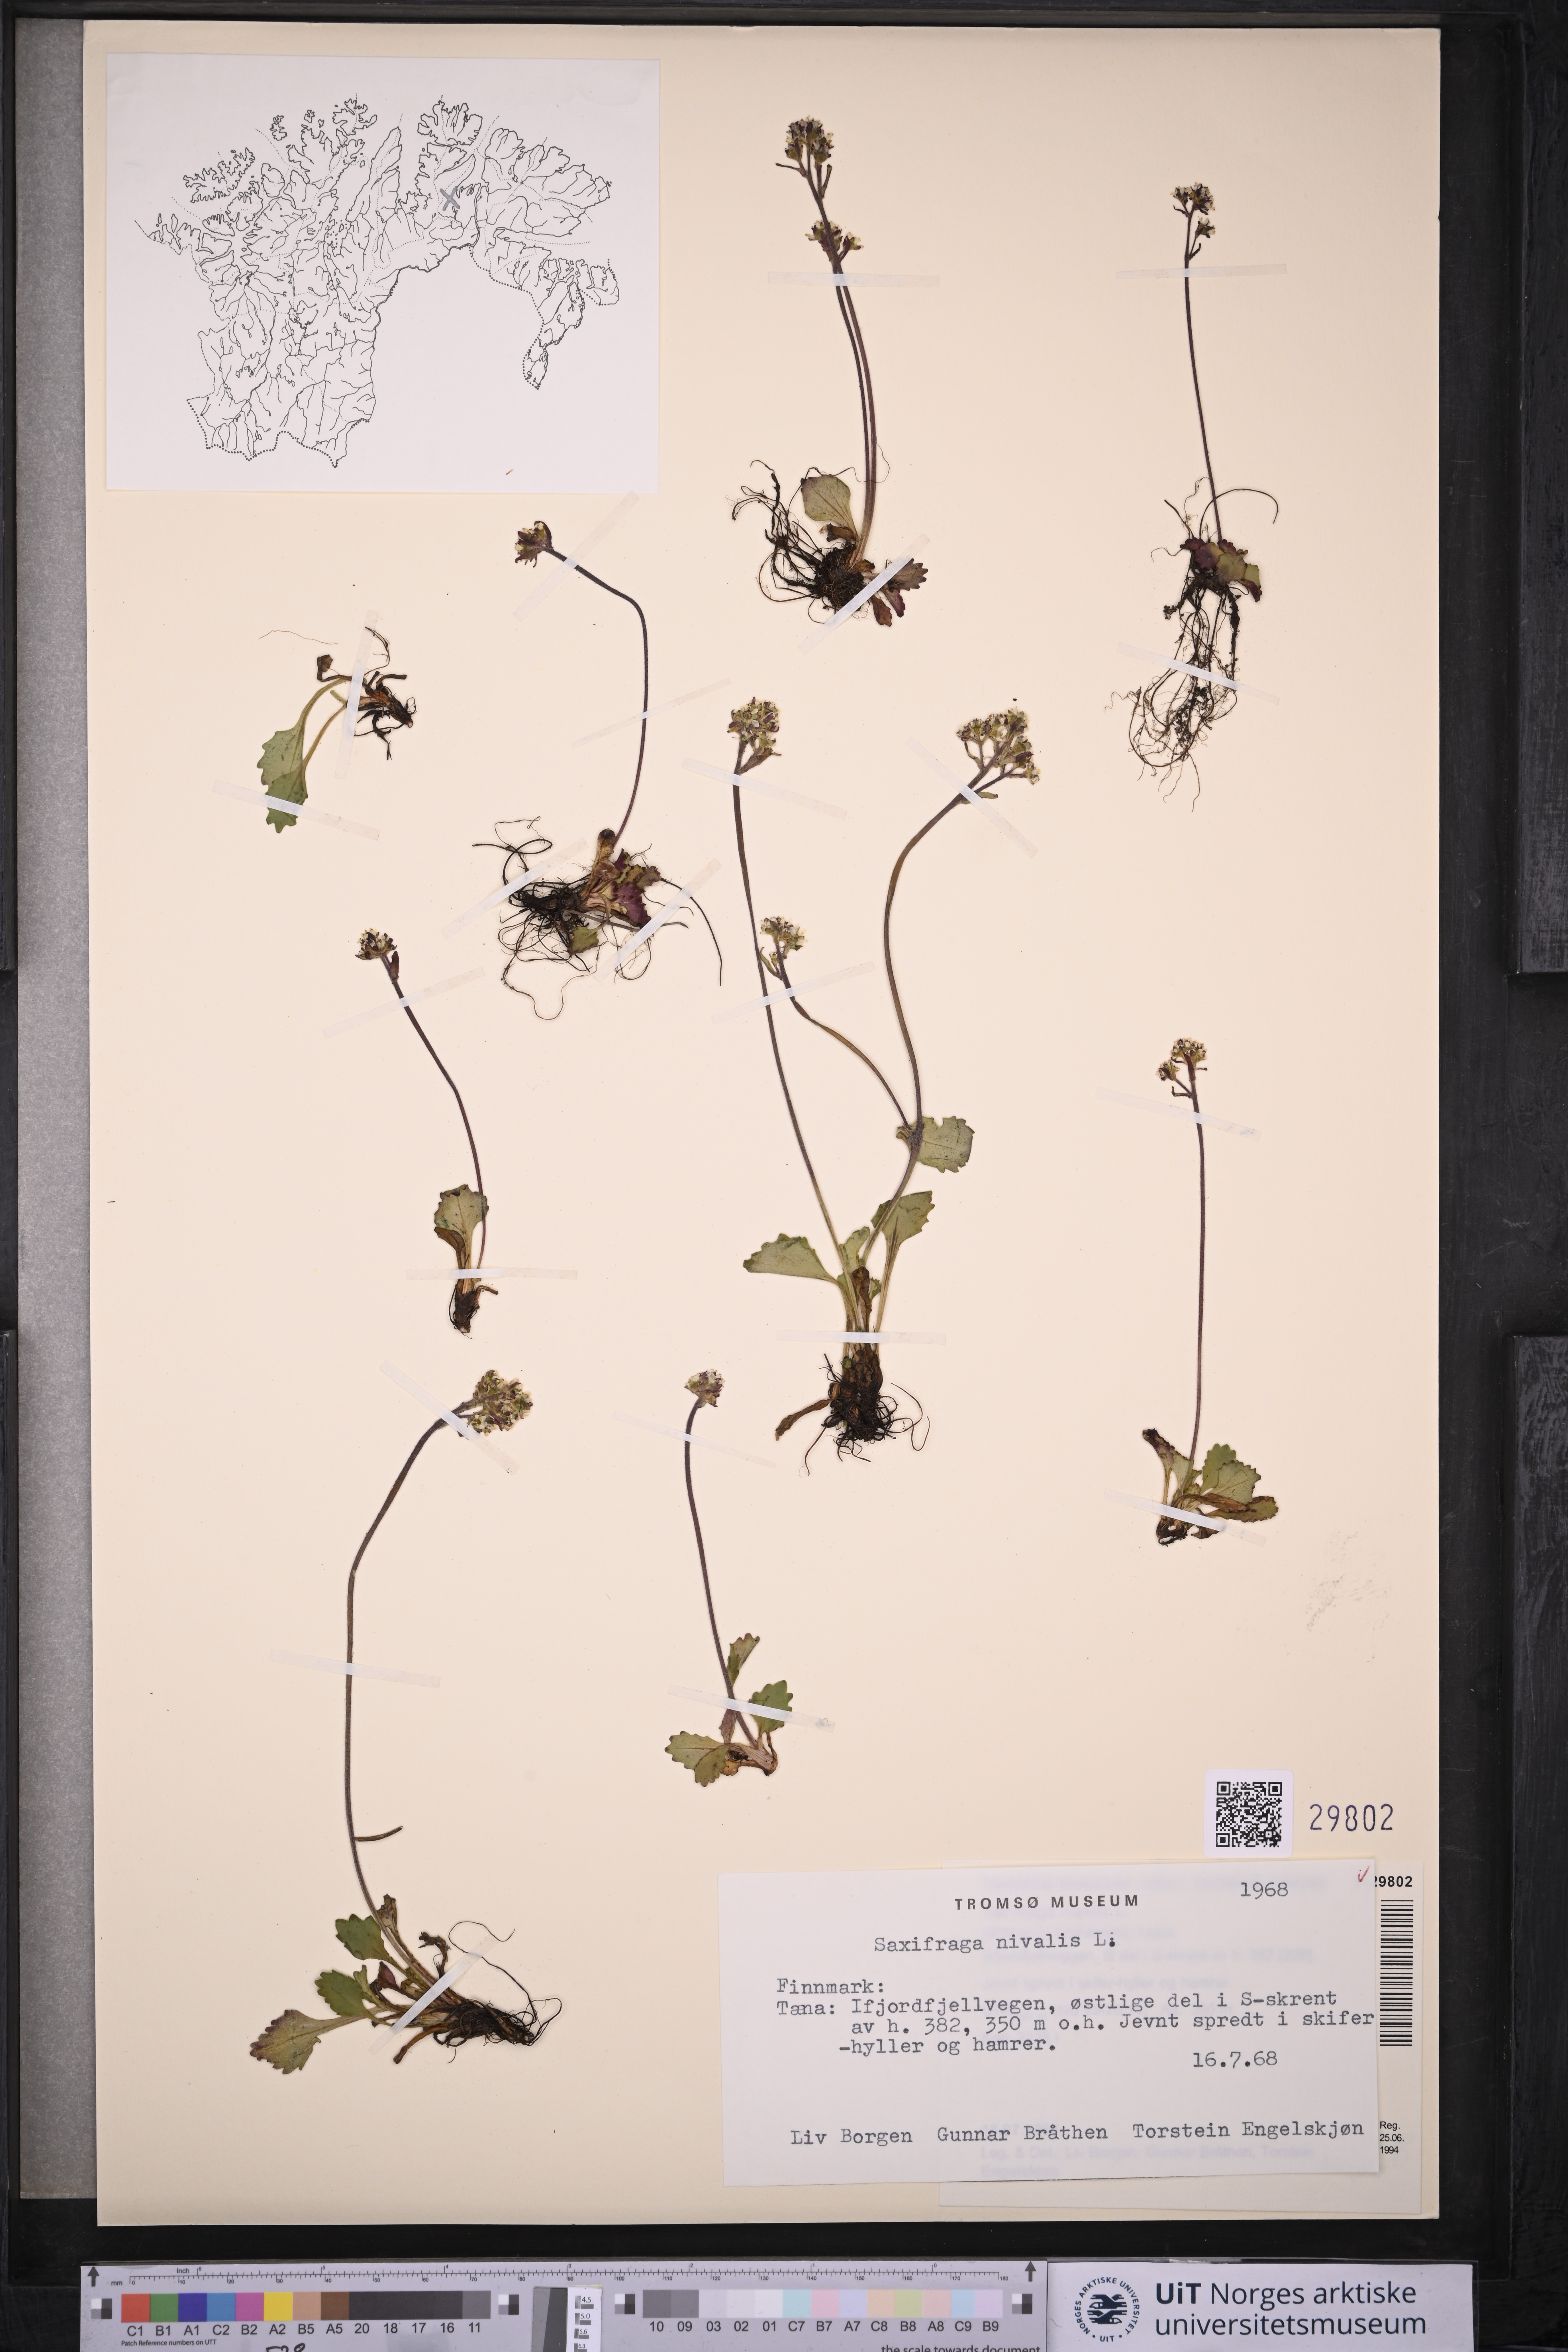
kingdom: Plantae
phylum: Tracheophyta
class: Magnoliopsida
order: Saxifragales
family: Saxifragaceae
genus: Micranthes
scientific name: Micranthes nivalis
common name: Alpine saxifrage
